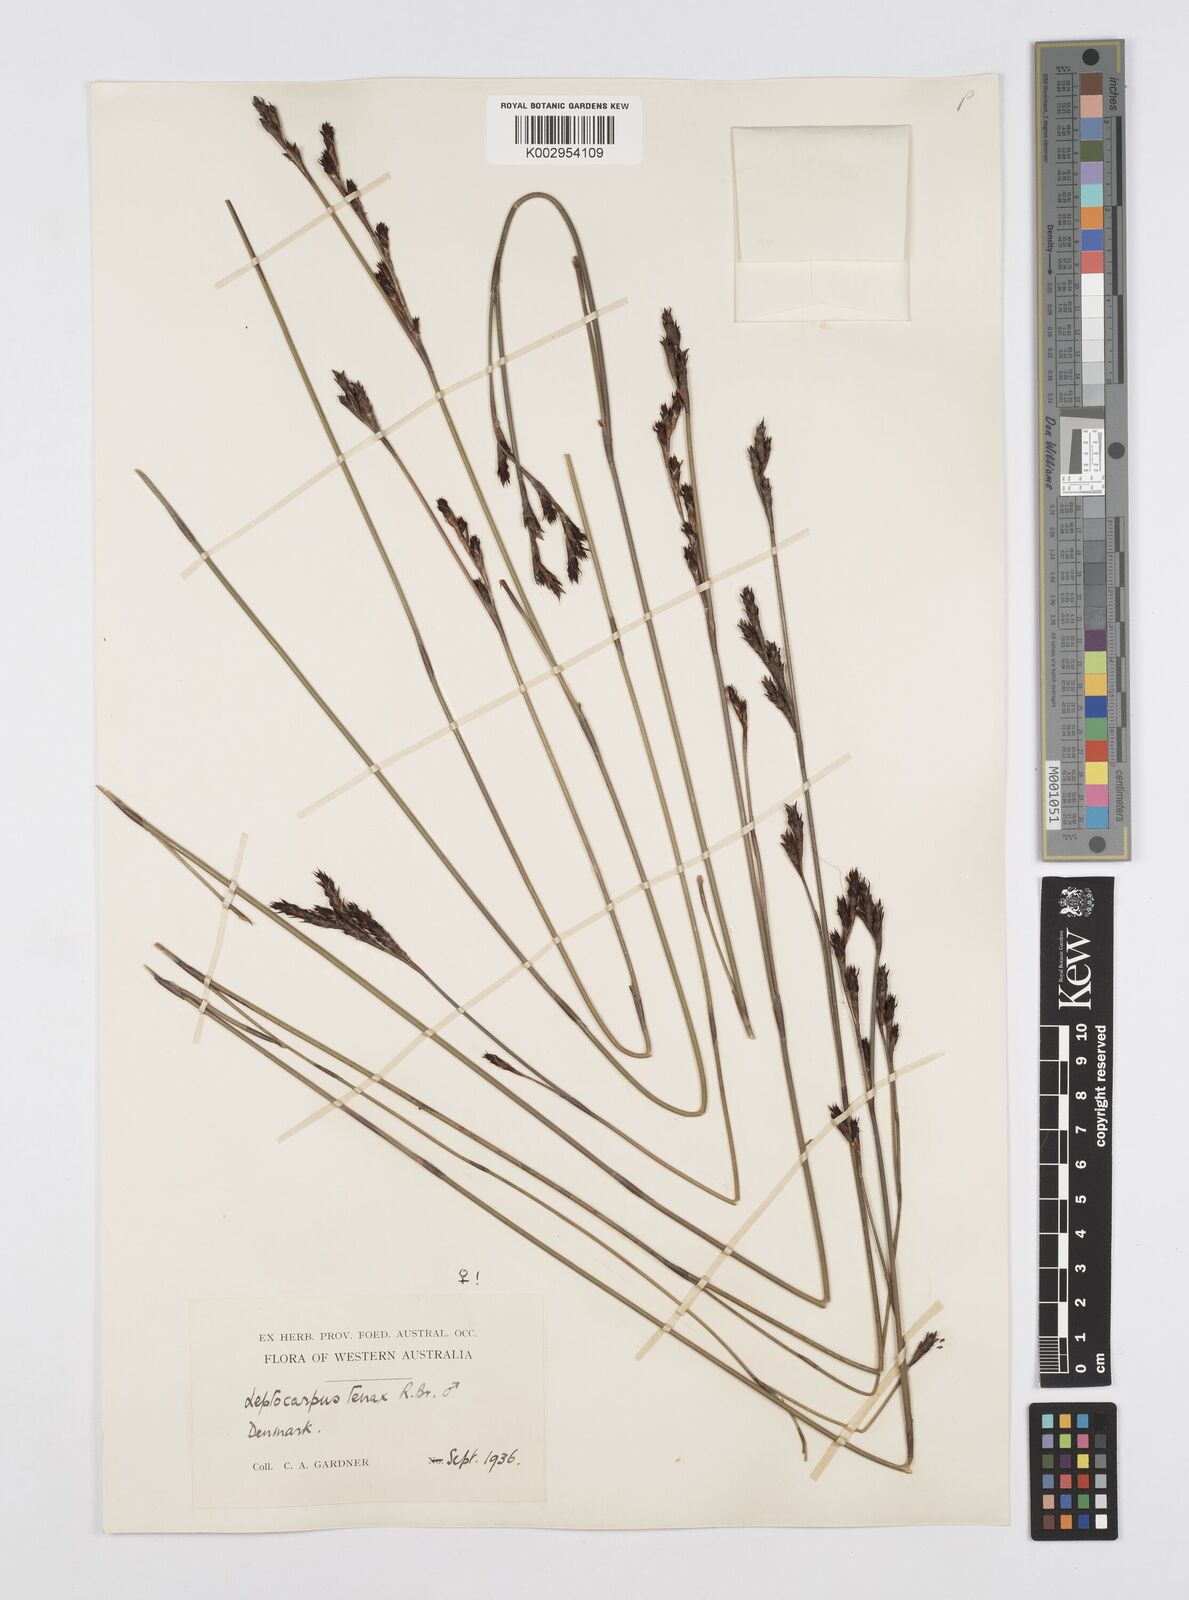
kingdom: Plantae
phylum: Tracheophyta
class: Liliopsida
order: Poales
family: Restionaceae
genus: Leptocarpus
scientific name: Leptocarpus tenax
